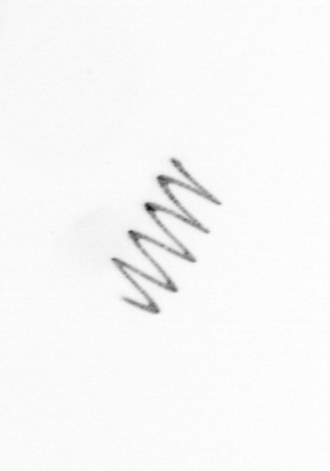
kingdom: Chromista
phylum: Ochrophyta
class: Bacillariophyceae
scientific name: Bacillariophyceae
